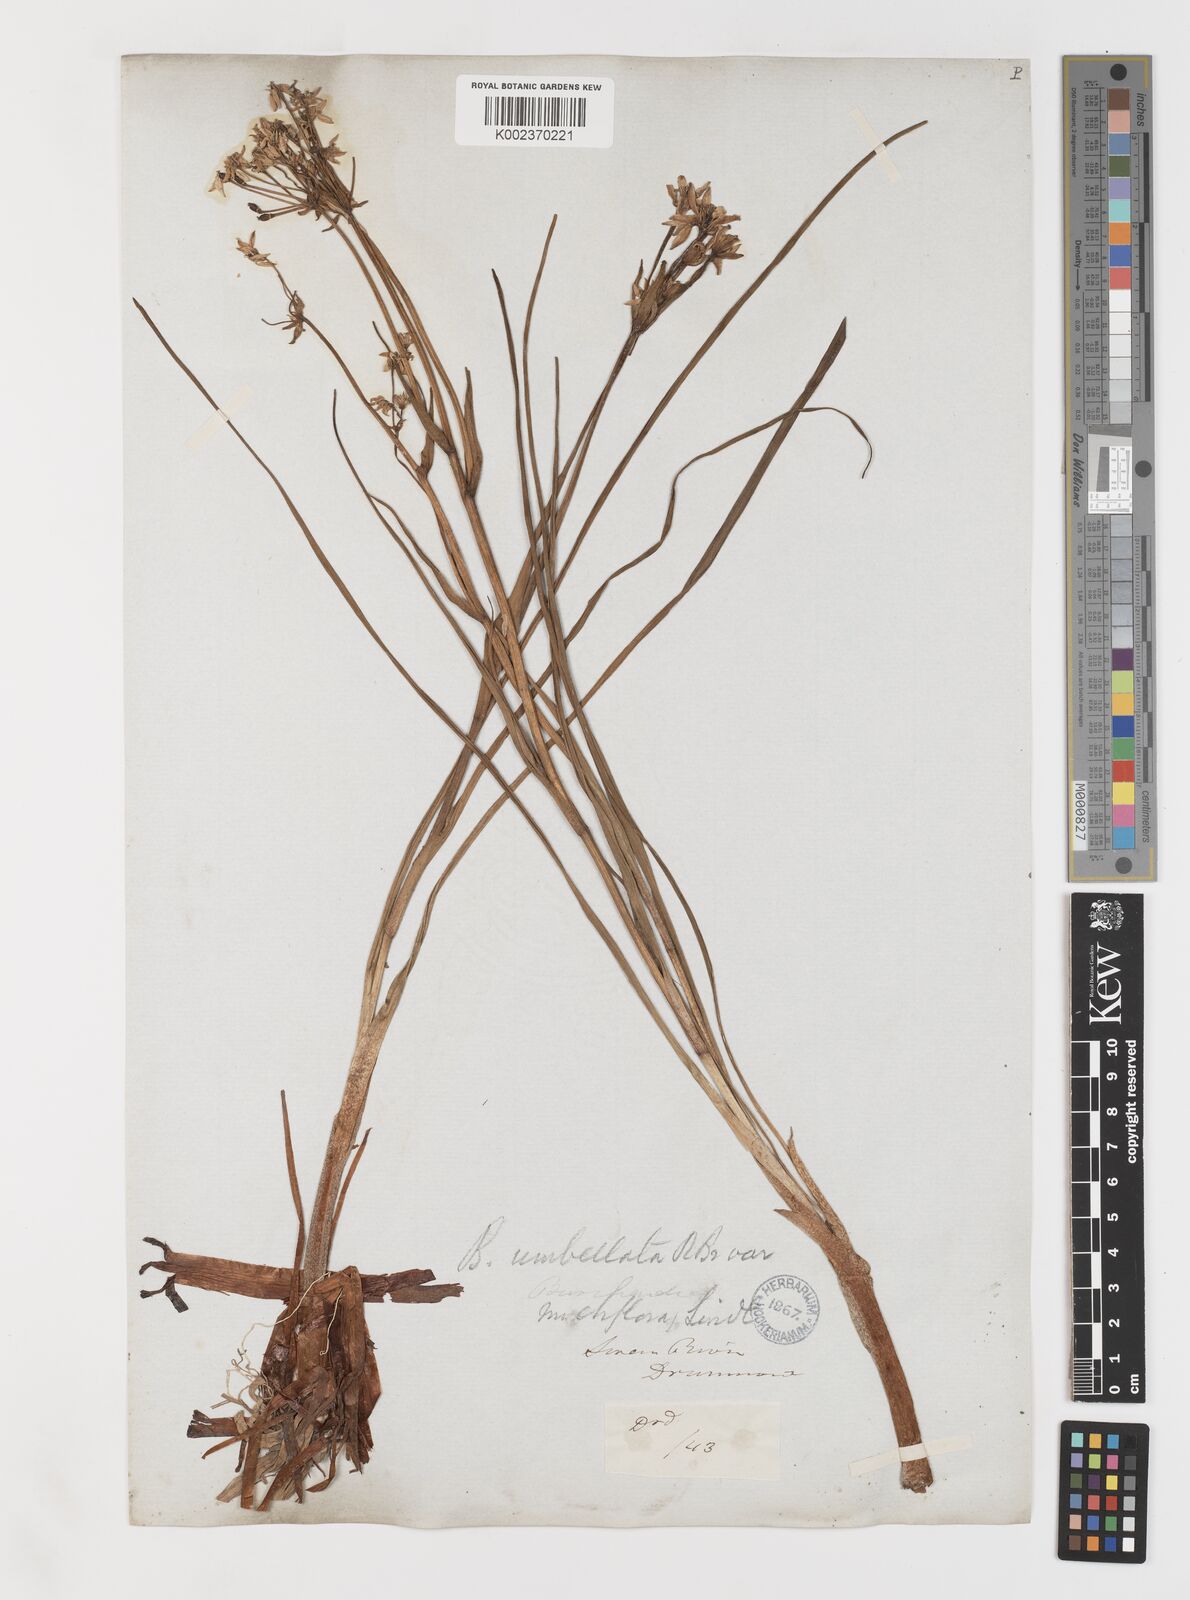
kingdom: Plantae
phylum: Tracheophyta
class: Liliopsida
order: Liliales
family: Colchicaceae
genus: Burchardia
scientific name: Burchardia multiflora
